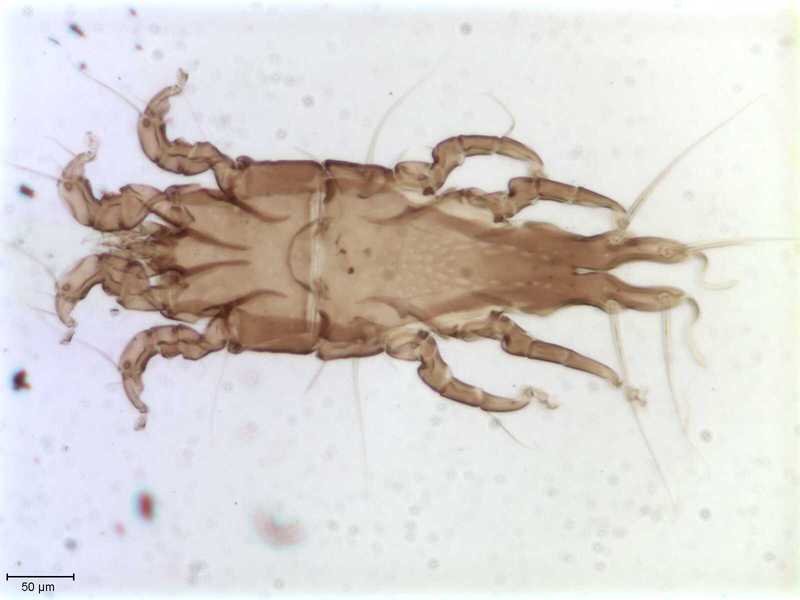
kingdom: Animalia
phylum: Arthropoda
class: Arachnida
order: Sarcoptiformes
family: Trouessartiidae
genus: Bicentralges
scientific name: Bicentralges
